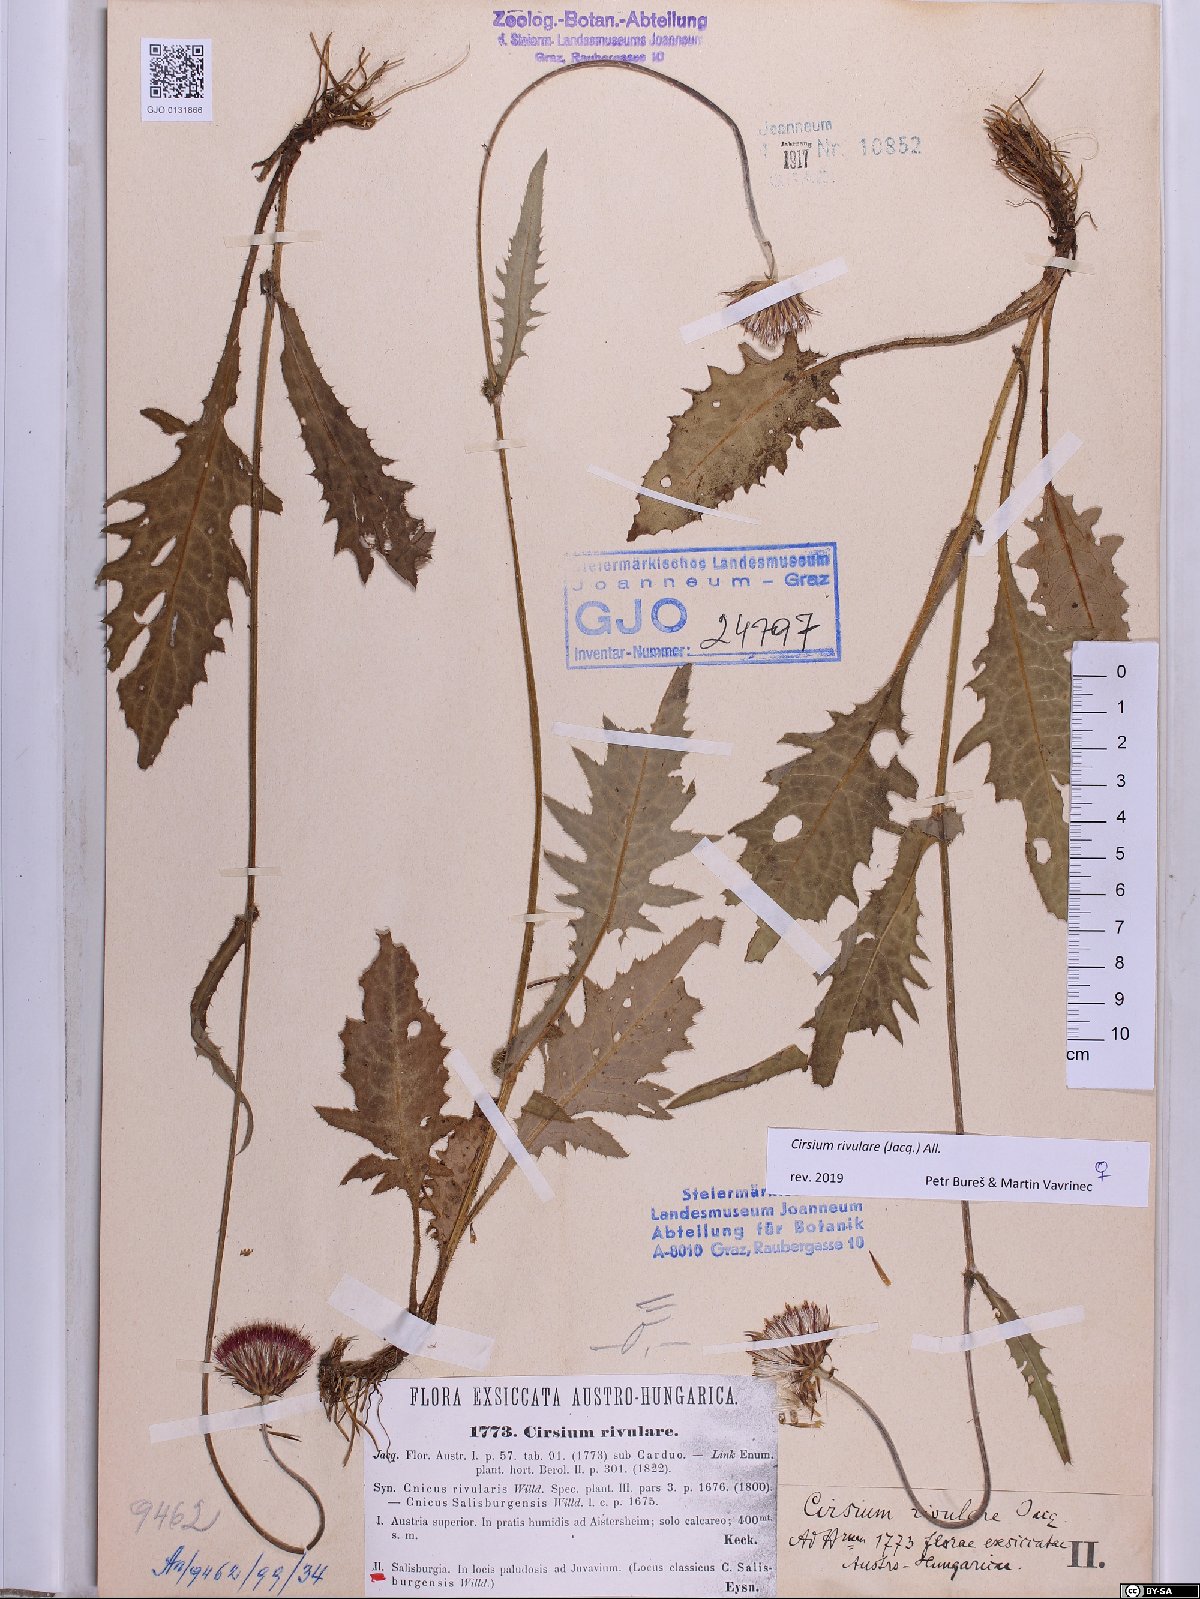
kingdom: Plantae
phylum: Tracheophyta
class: Magnoliopsida
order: Asterales
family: Asteraceae
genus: Cirsium
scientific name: Cirsium rivulare
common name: Brook thistle
